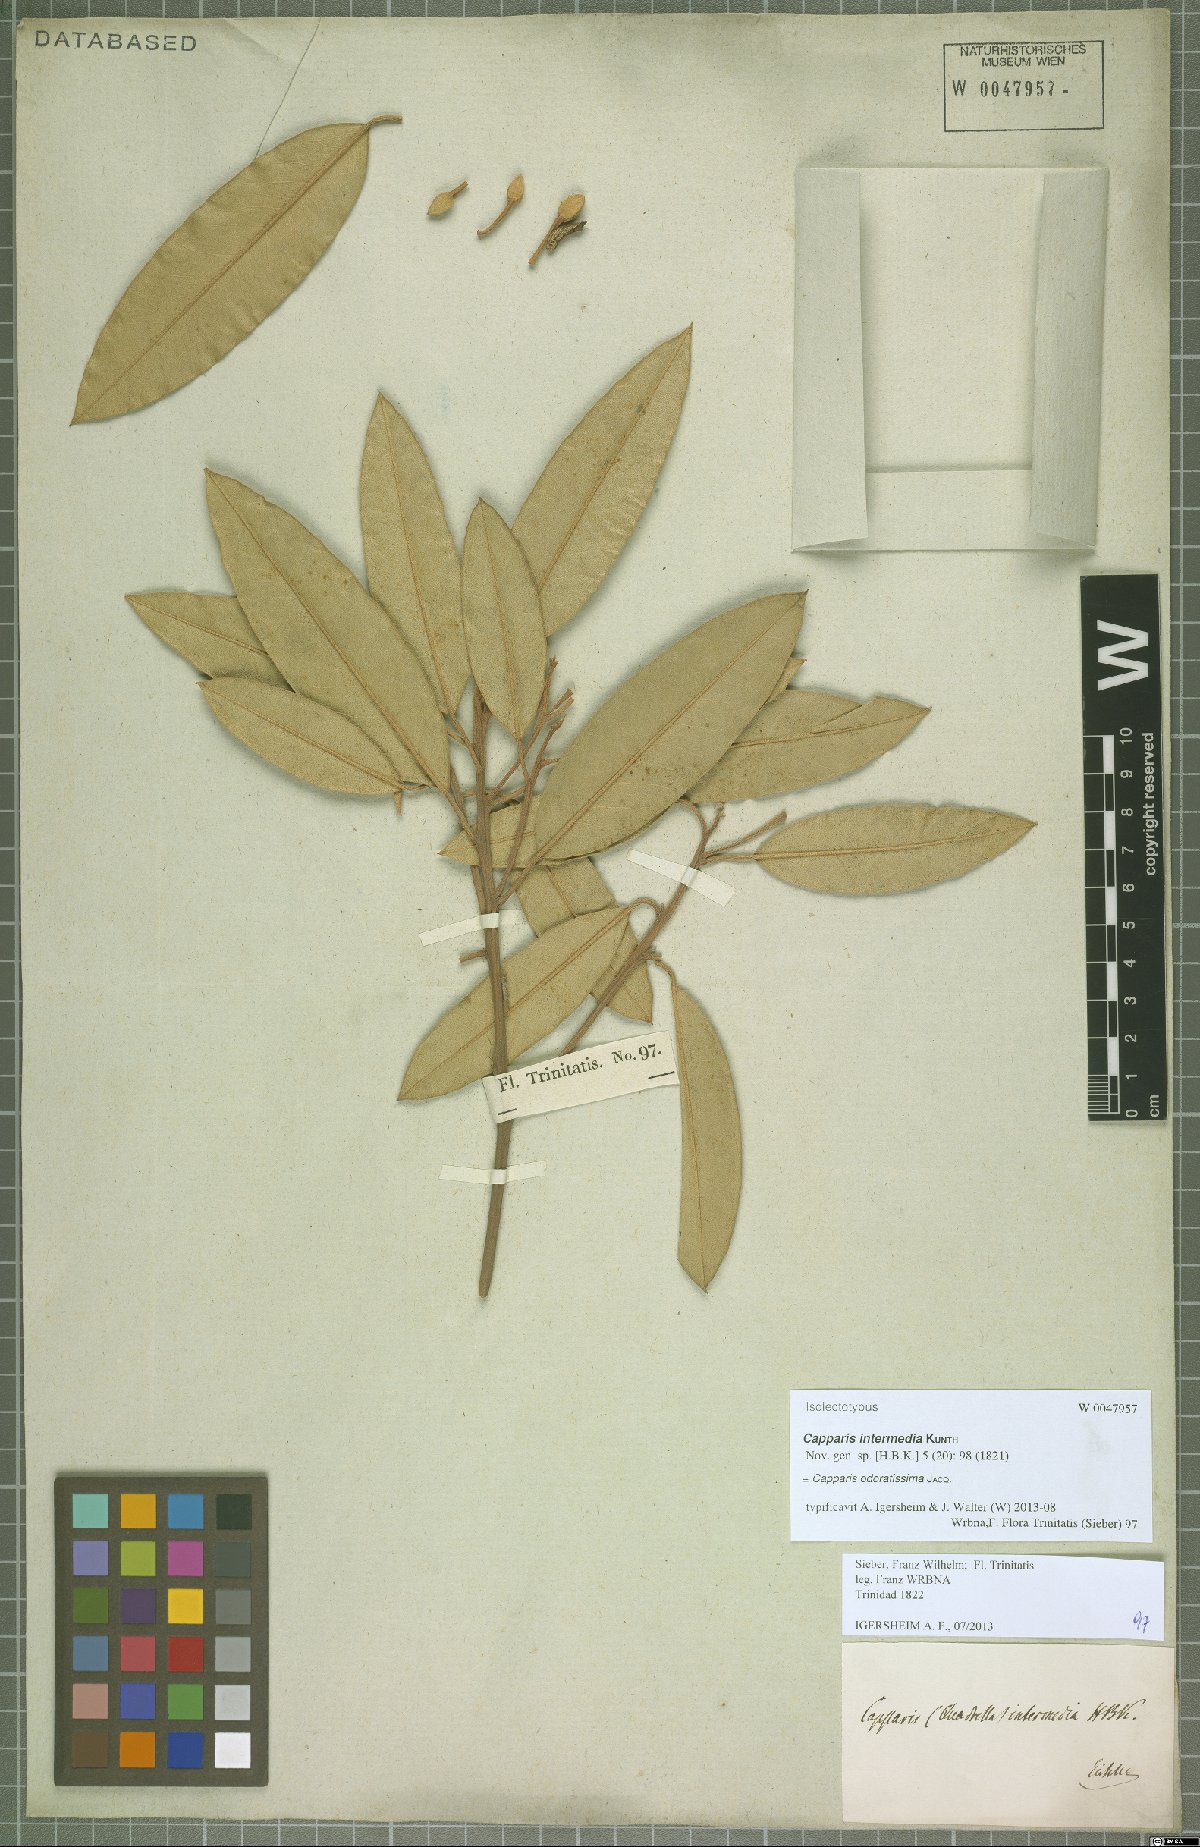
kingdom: Plantae
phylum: Tracheophyta
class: Magnoliopsida
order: Brassicales
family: Capparaceae
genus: Quadrella
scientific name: Quadrella odoratissima
